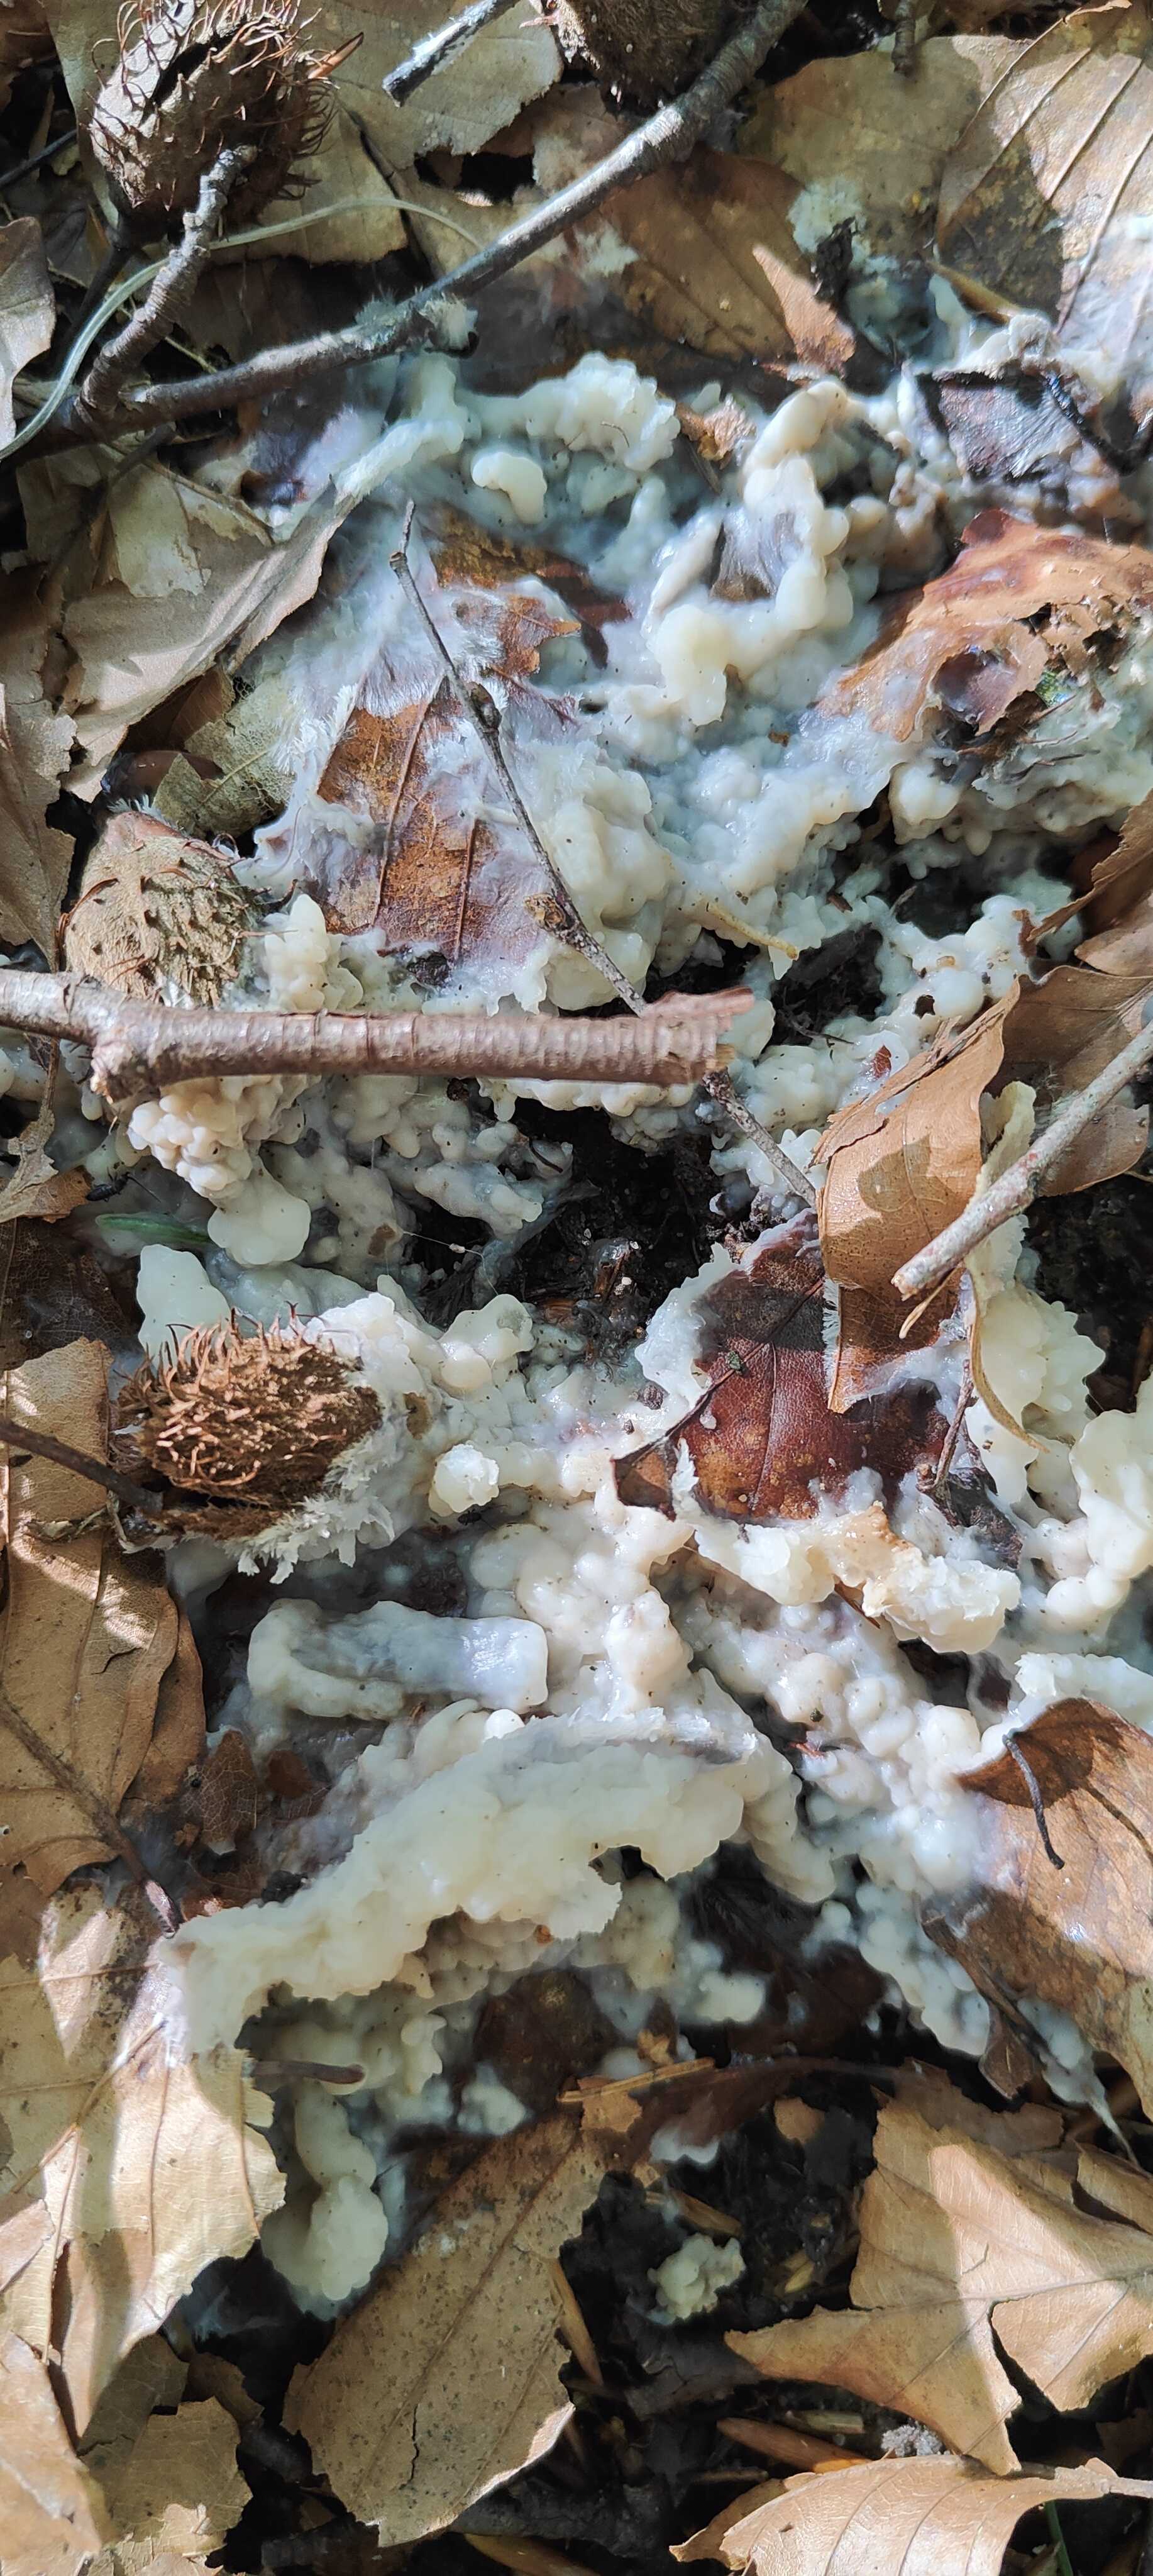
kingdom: Fungi
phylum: Basidiomycota
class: Agaricomycetes
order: Sebacinales
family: Sebacinaceae
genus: Sebacina
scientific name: Sebacina
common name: bævretalg
